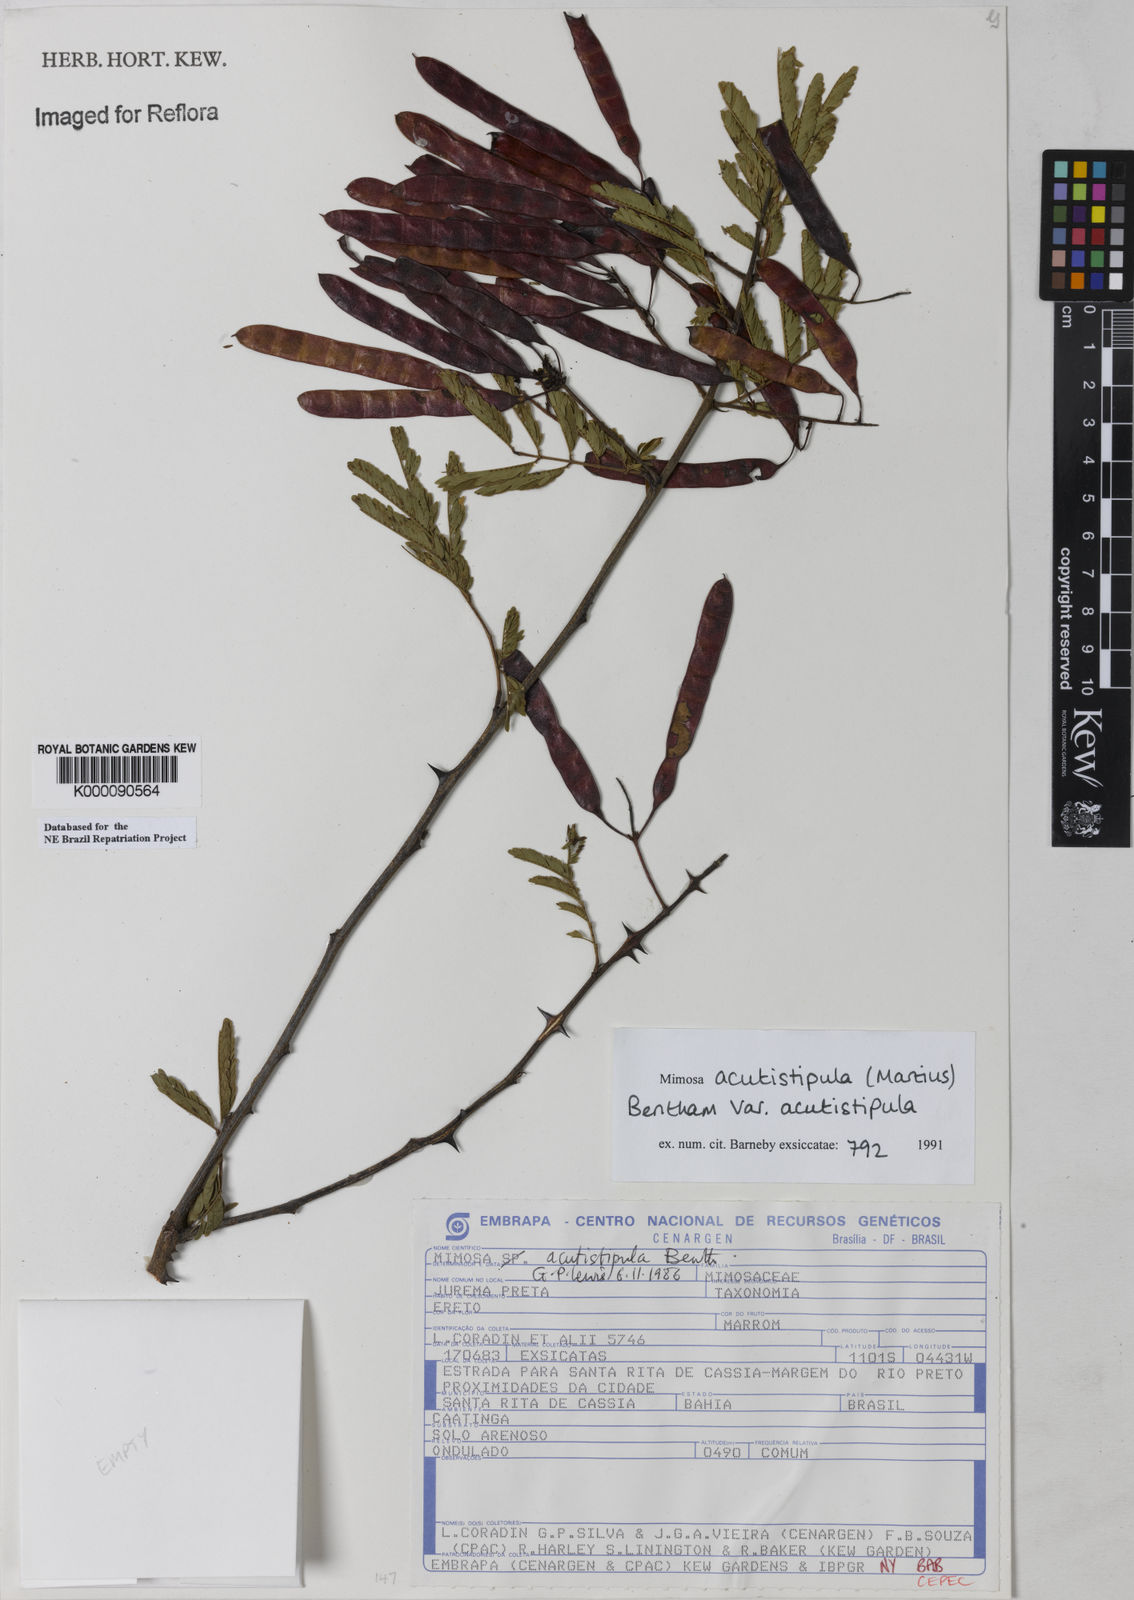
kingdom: Plantae
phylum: Tracheophyta
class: Magnoliopsida
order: Fabales
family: Fabaceae
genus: Mimosa
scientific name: Mimosa acutistipula
